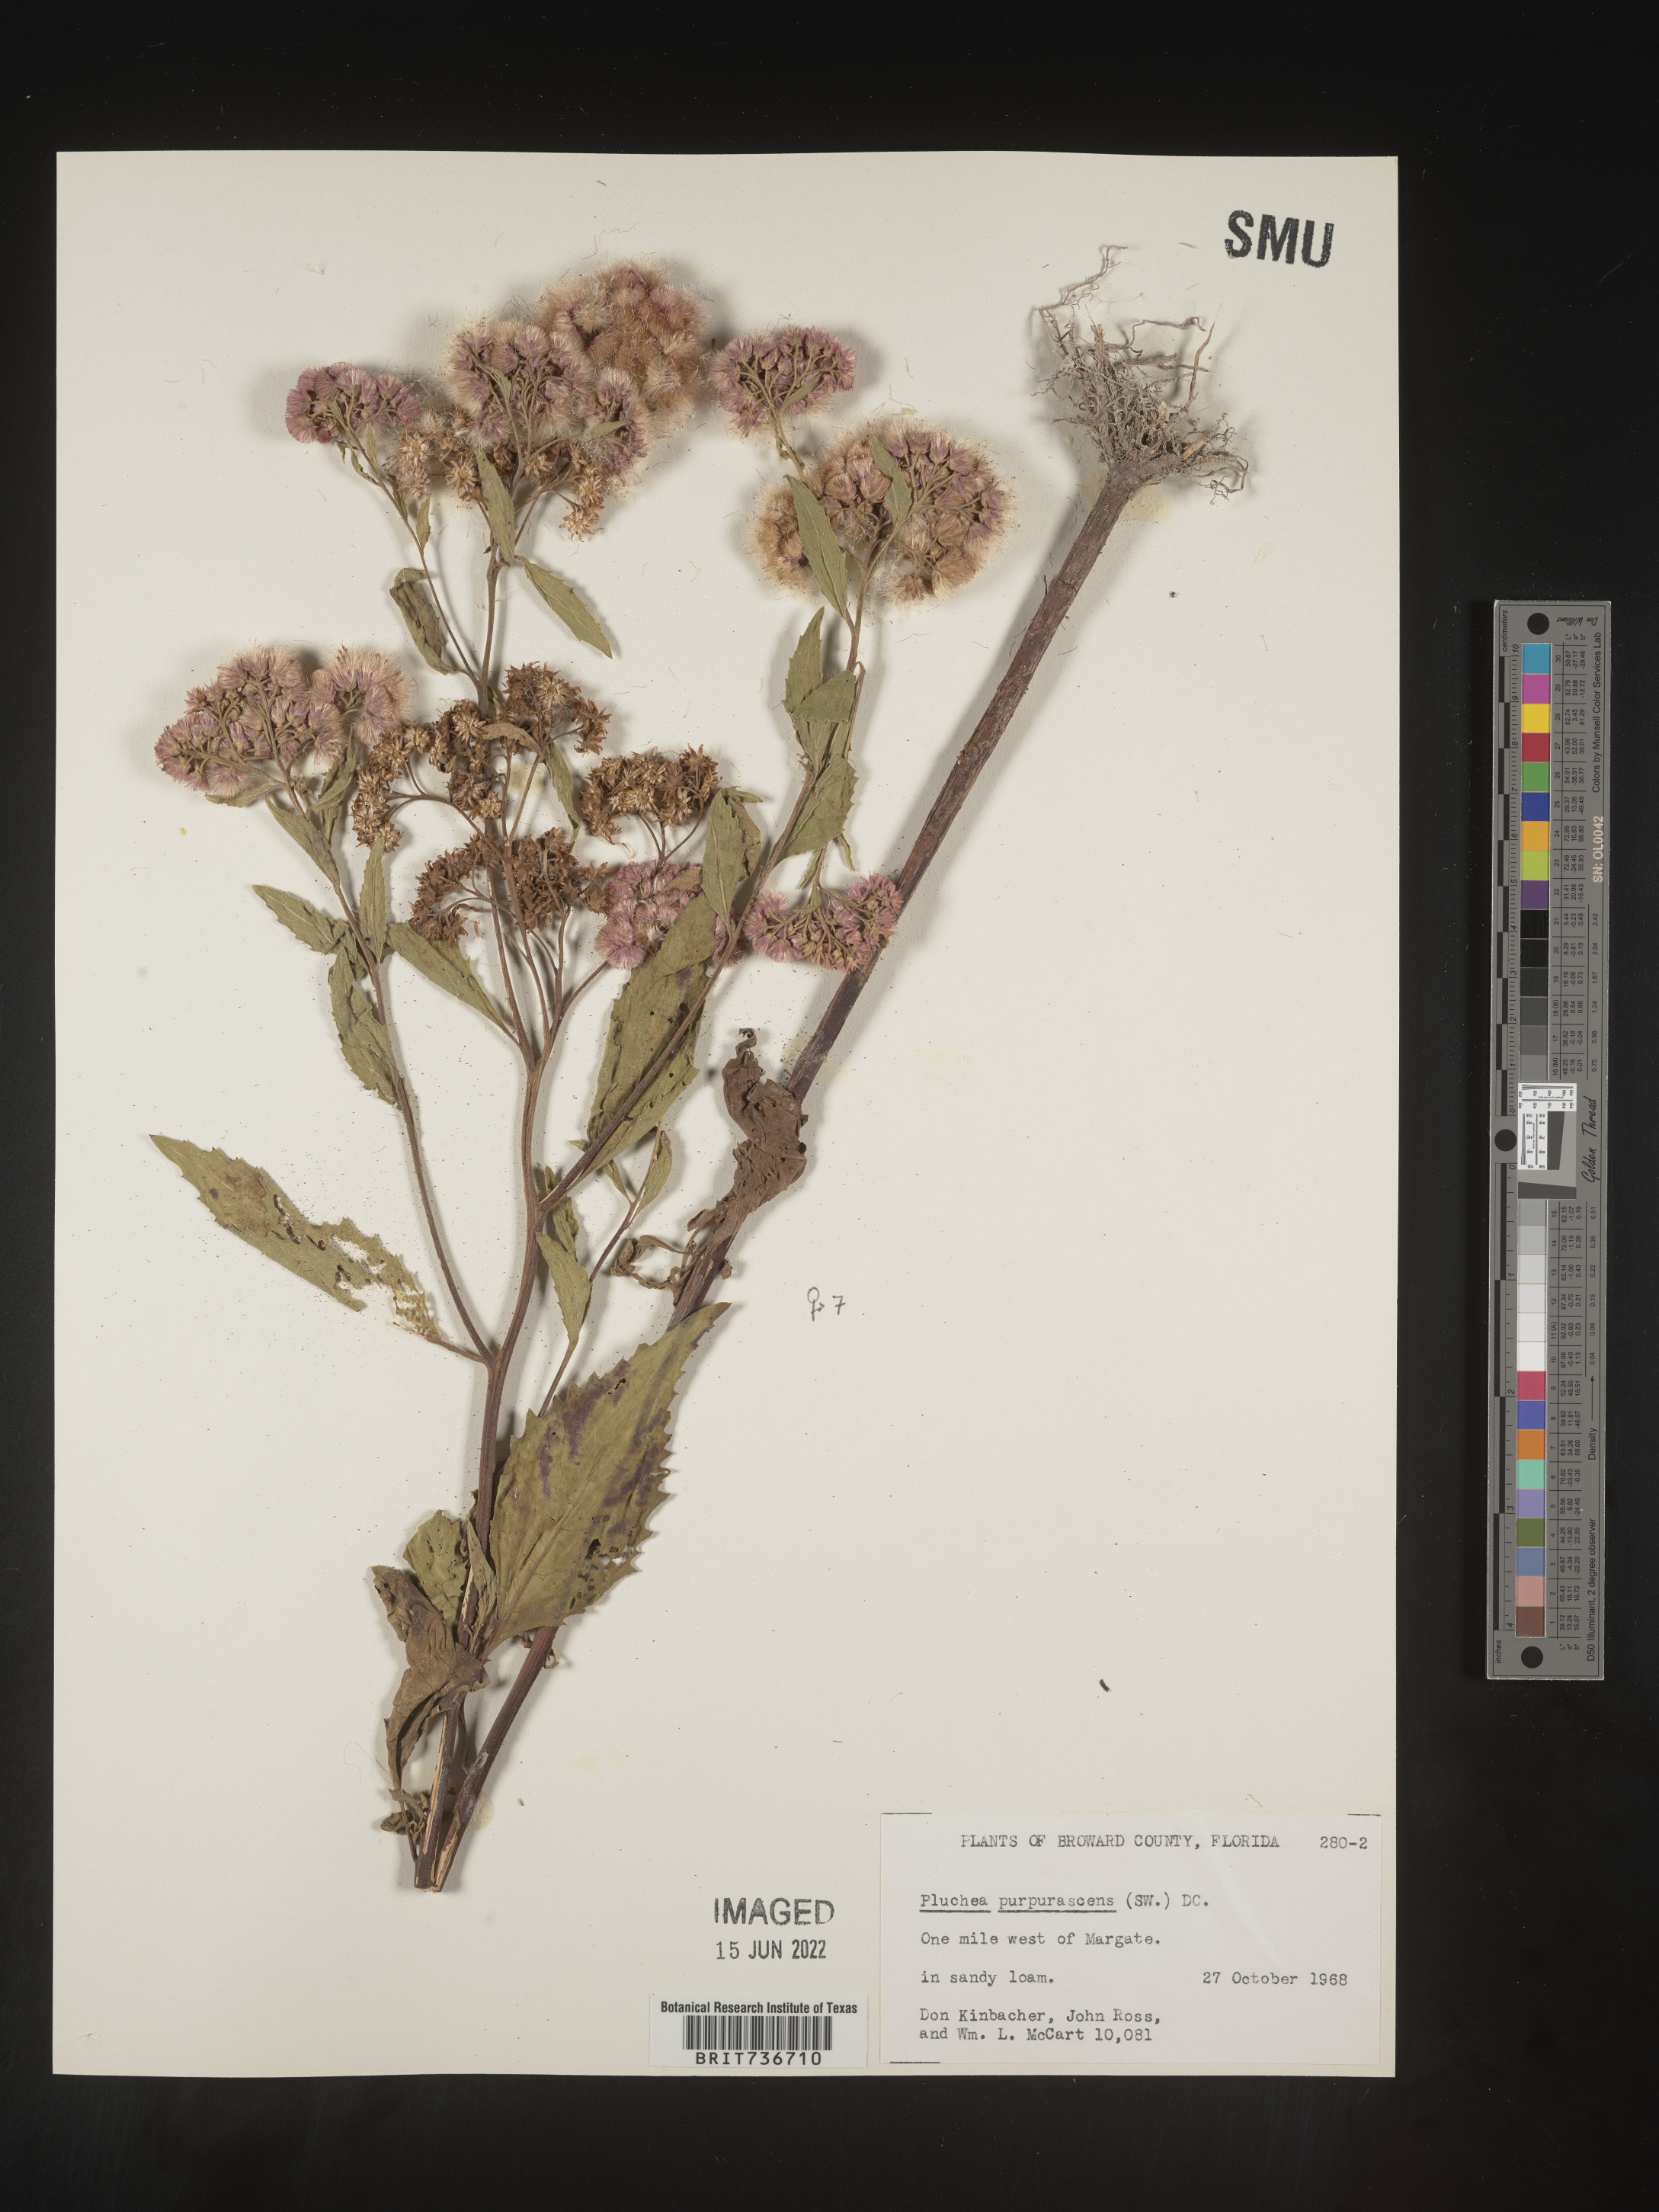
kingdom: Plantae
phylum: Tracheophyta
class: Magnoliopsida
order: Asterales
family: Asteraceae
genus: Pluchea
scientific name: Pluchea odorata
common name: Saltmarsh fleabane
